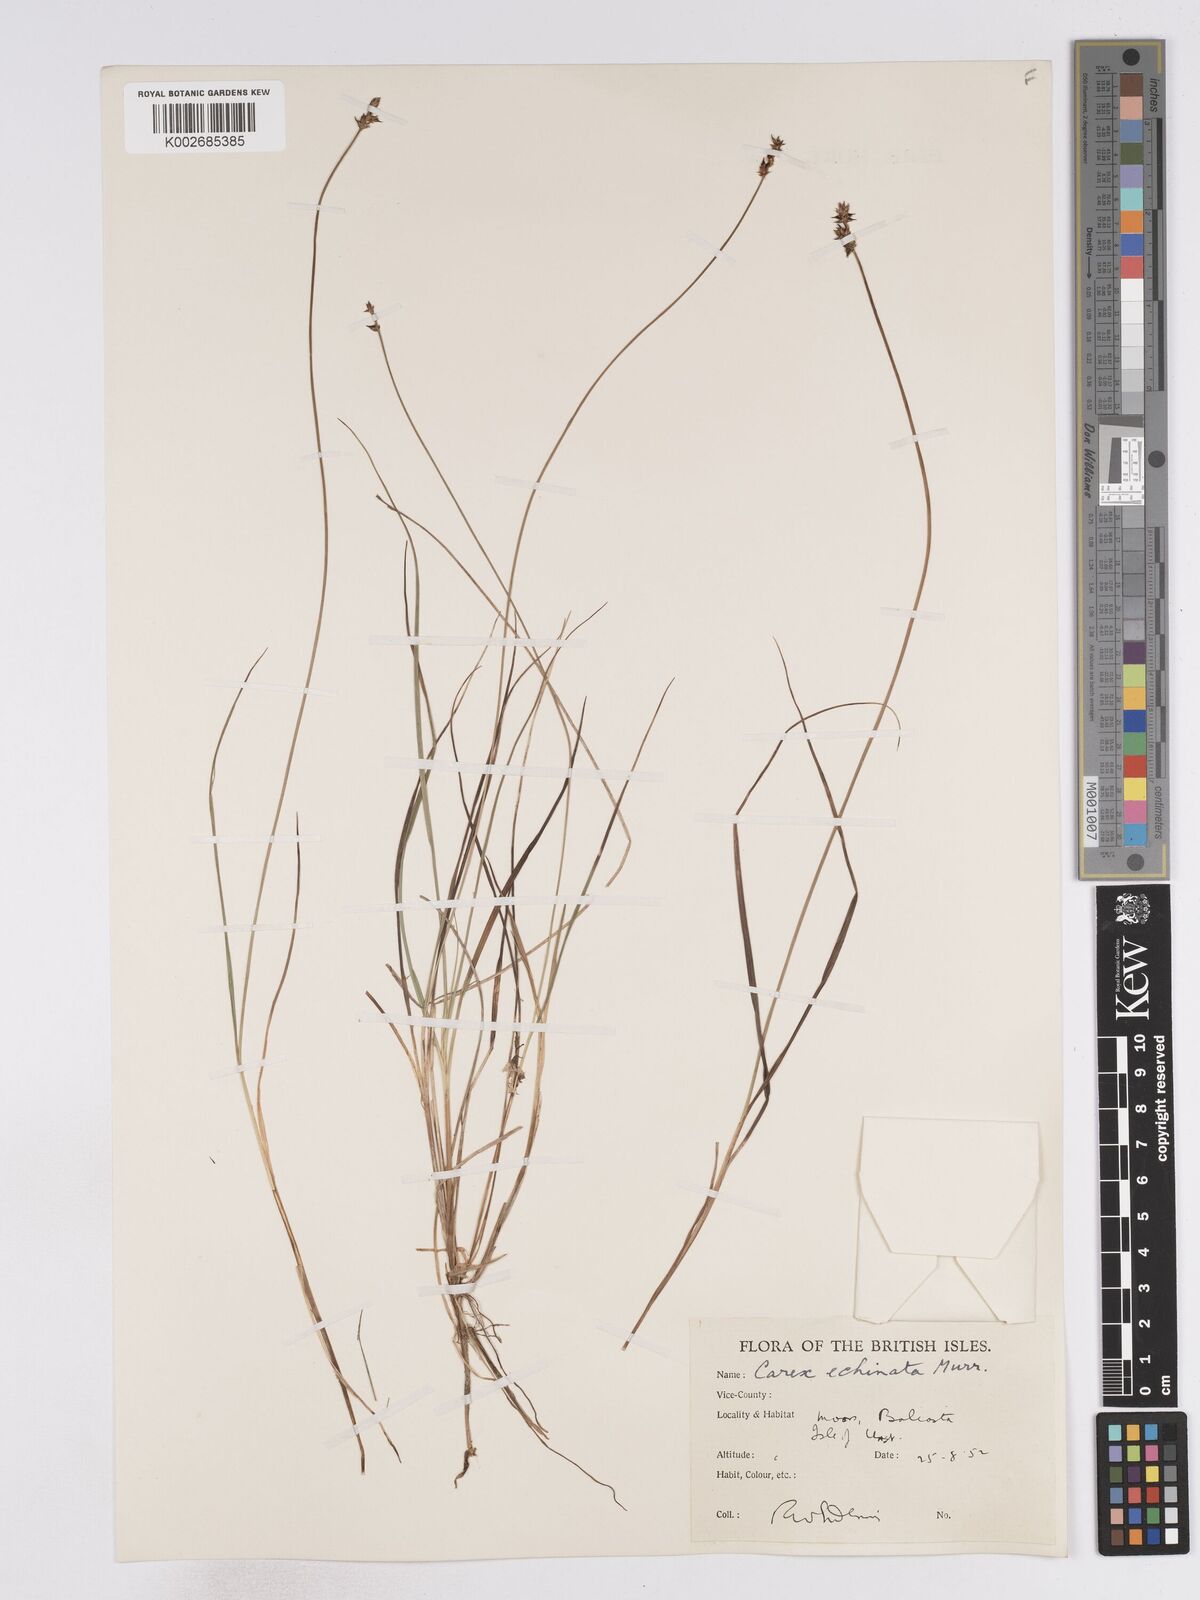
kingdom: Plantae
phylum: Tracheophyta
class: Liliopsida
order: Poales
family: Cyperaceae
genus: Carex
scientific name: Carex echinata
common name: Star sedge
